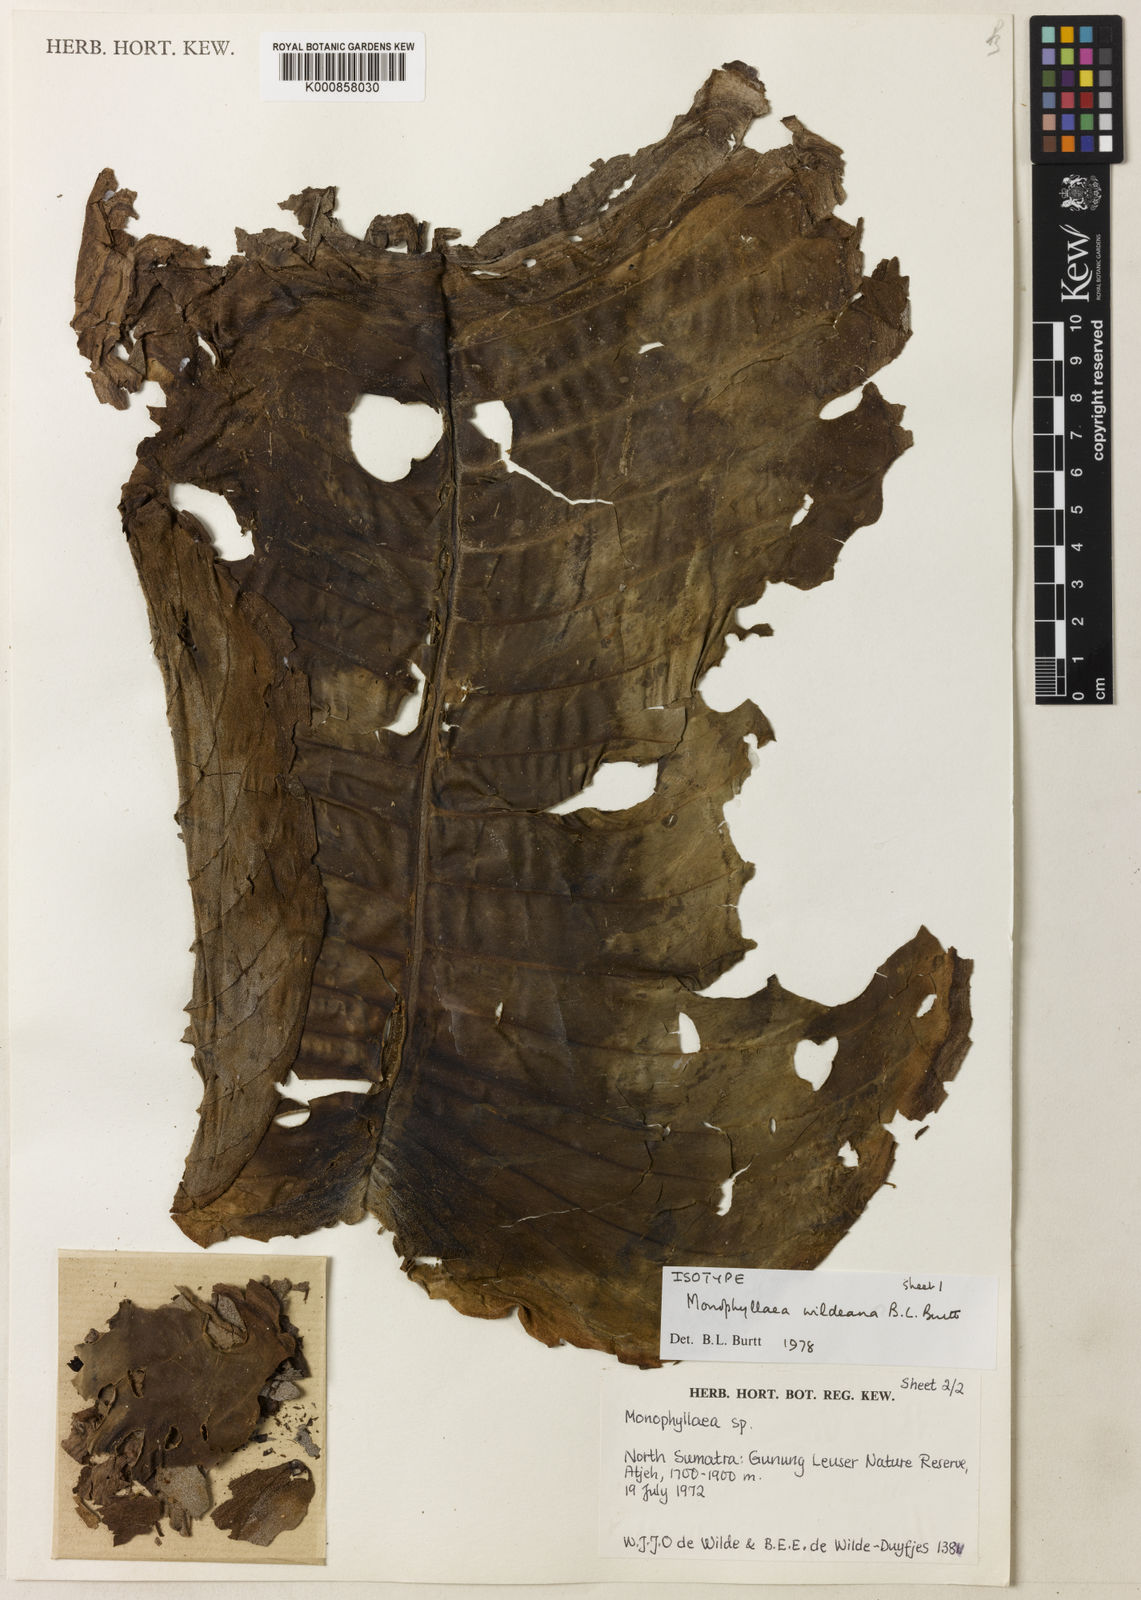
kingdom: Plantae
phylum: Tracheophyta
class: Magnoliopsida
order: Lamiales
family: Gesneriaceae
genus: Monophyllaea
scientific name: Monophyllaea wildeana
